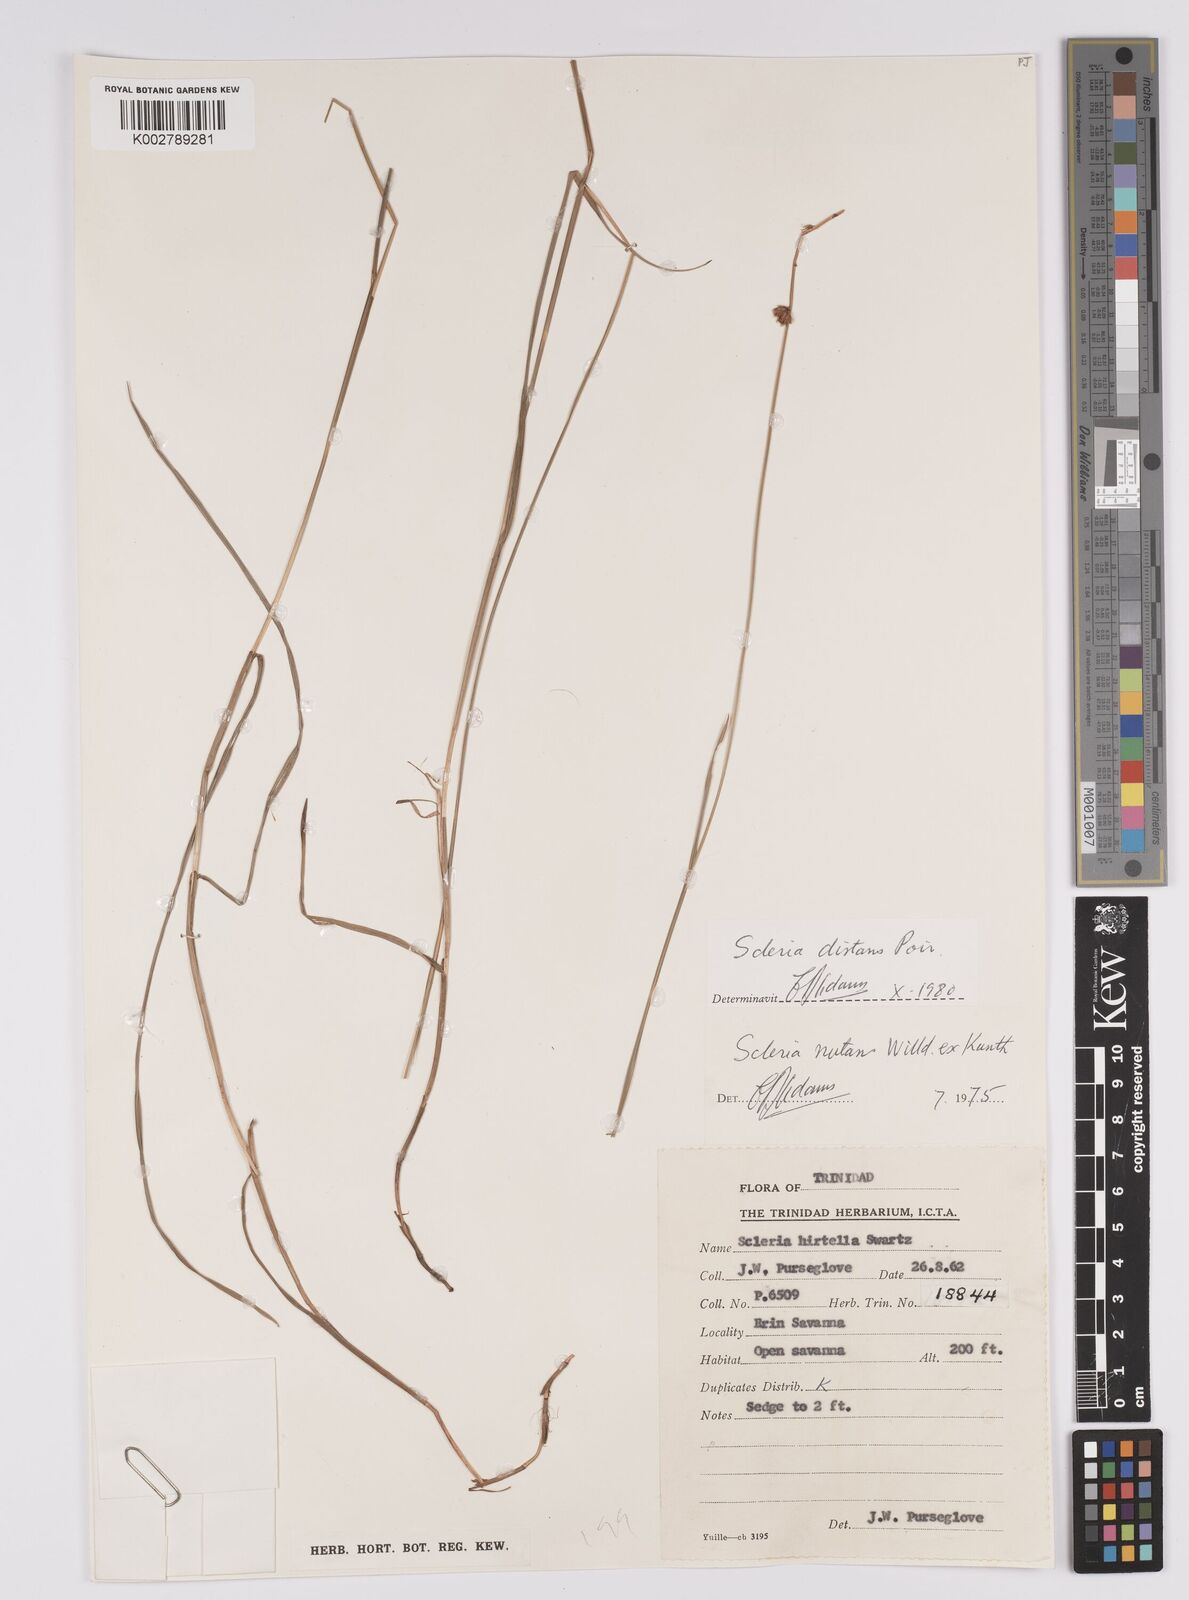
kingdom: Plantae
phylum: Tracheophyta
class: Liliopsida
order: Poales
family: Cyperaceae
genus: Scleria
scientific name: Scleria distans
